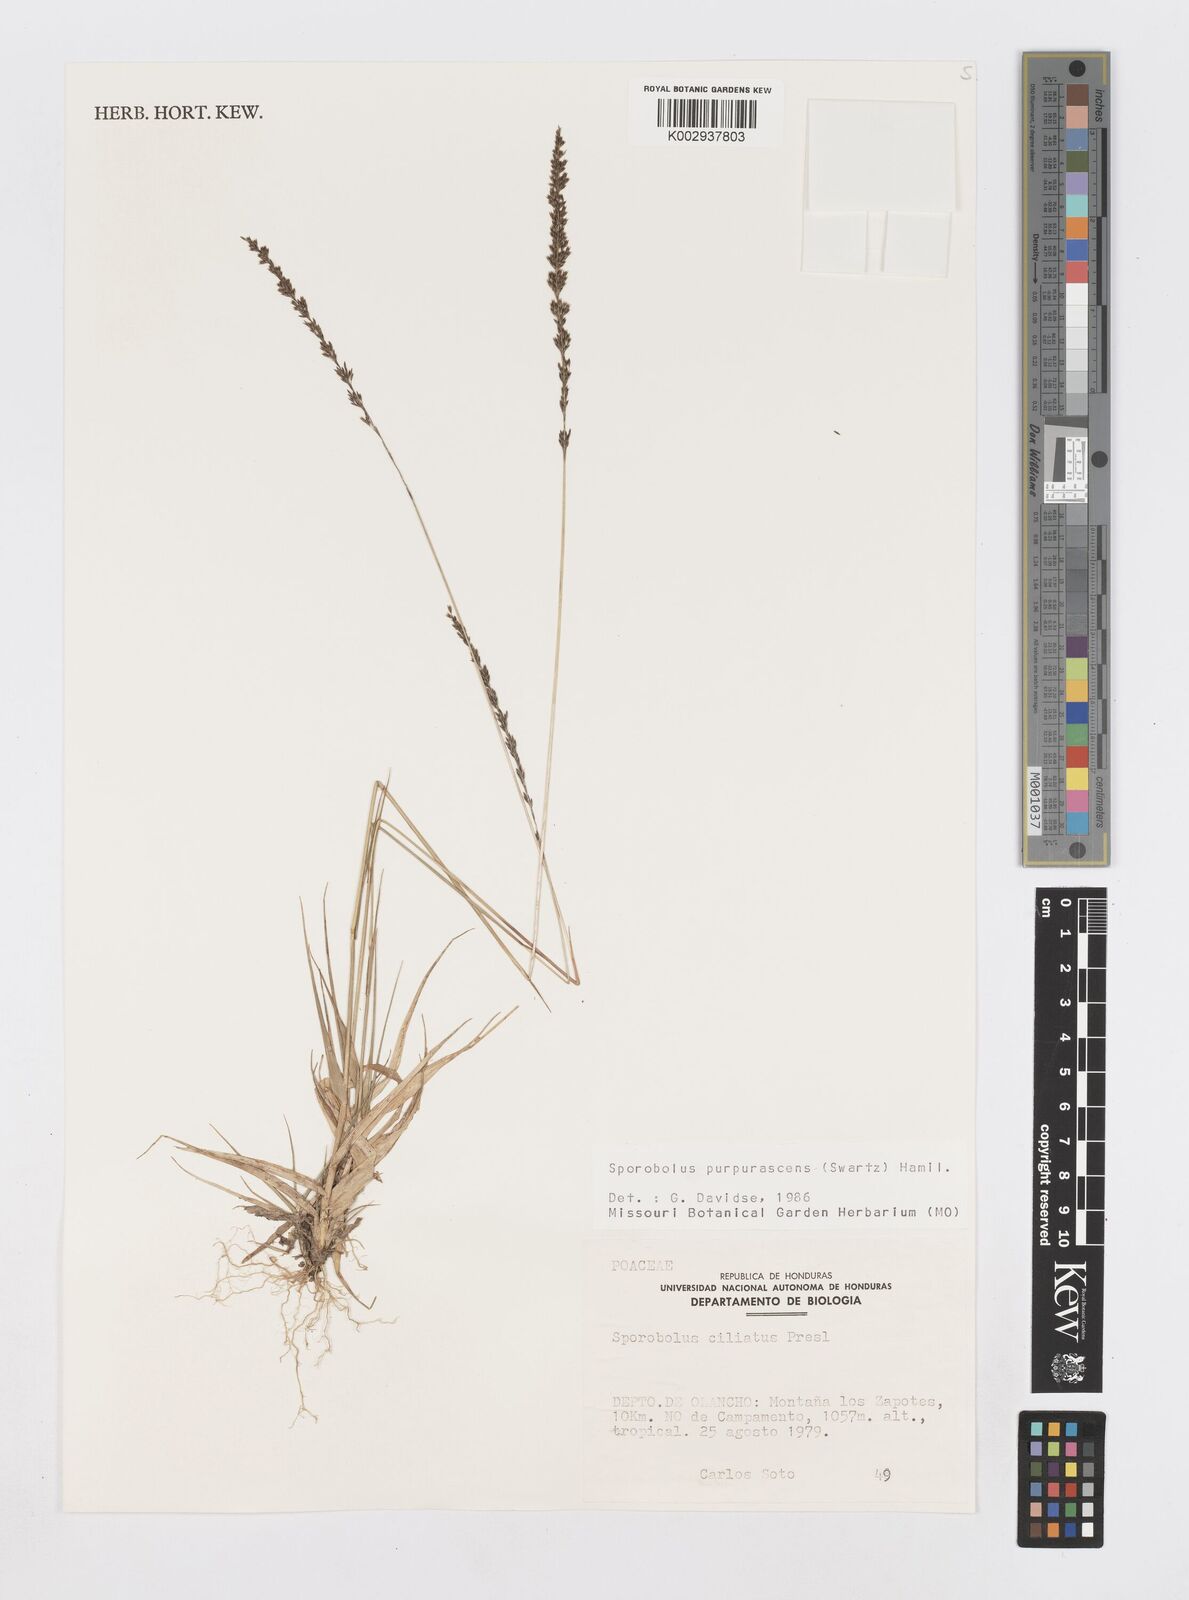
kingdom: Plantae
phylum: Tracheophyta
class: Liliopsida
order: Poales
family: Poaceae
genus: Sporobolus
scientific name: Sporobolus purpurascens
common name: Purple dropseed
